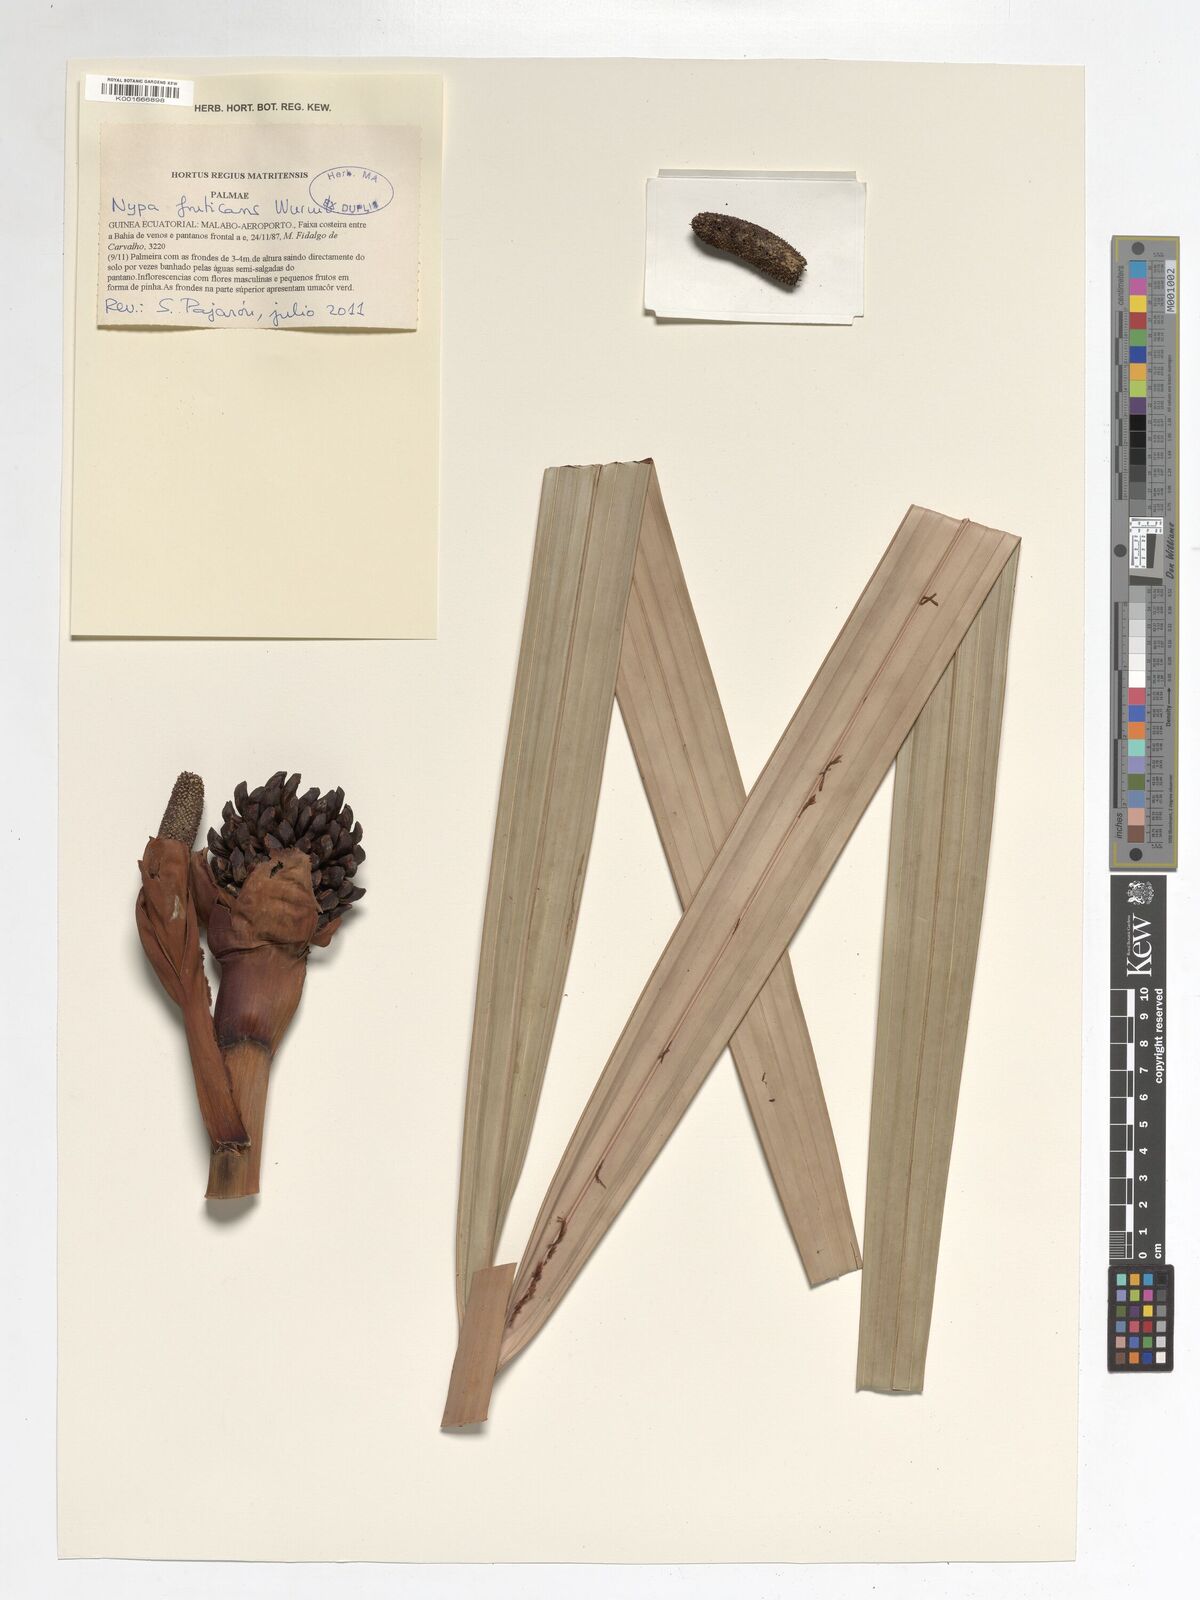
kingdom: Plantae
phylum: Tracheophyta
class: Liliopsida
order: Arecales
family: Arecaceae
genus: Nypa
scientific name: Nypa fruticans
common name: Mangrove palm
